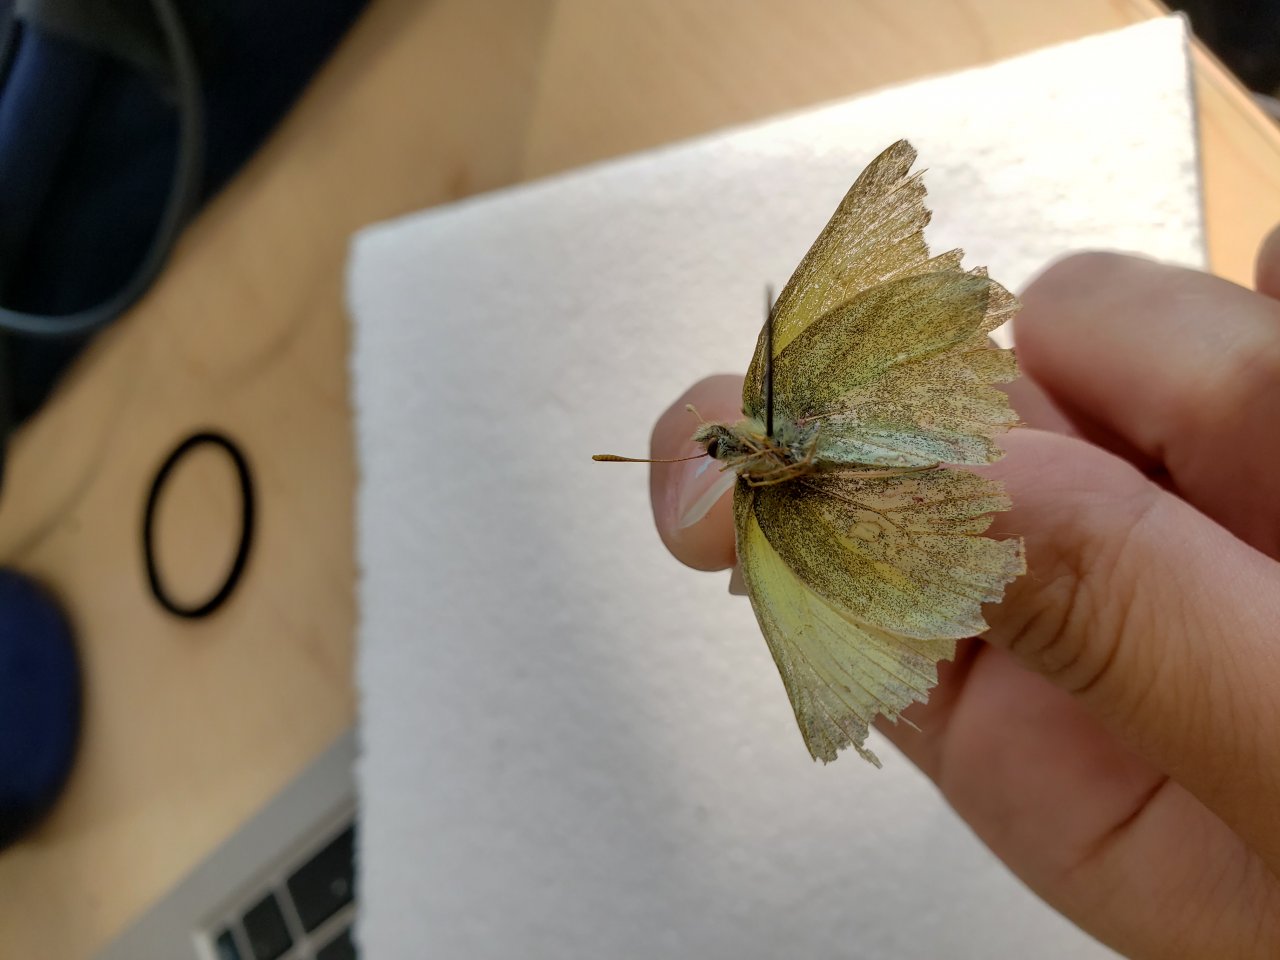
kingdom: Animalia
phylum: Arthropoda
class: Insecta
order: Lepidoptera
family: Pieridae
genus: Colias
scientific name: Colias pelidne
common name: Pelidne Sulphur
